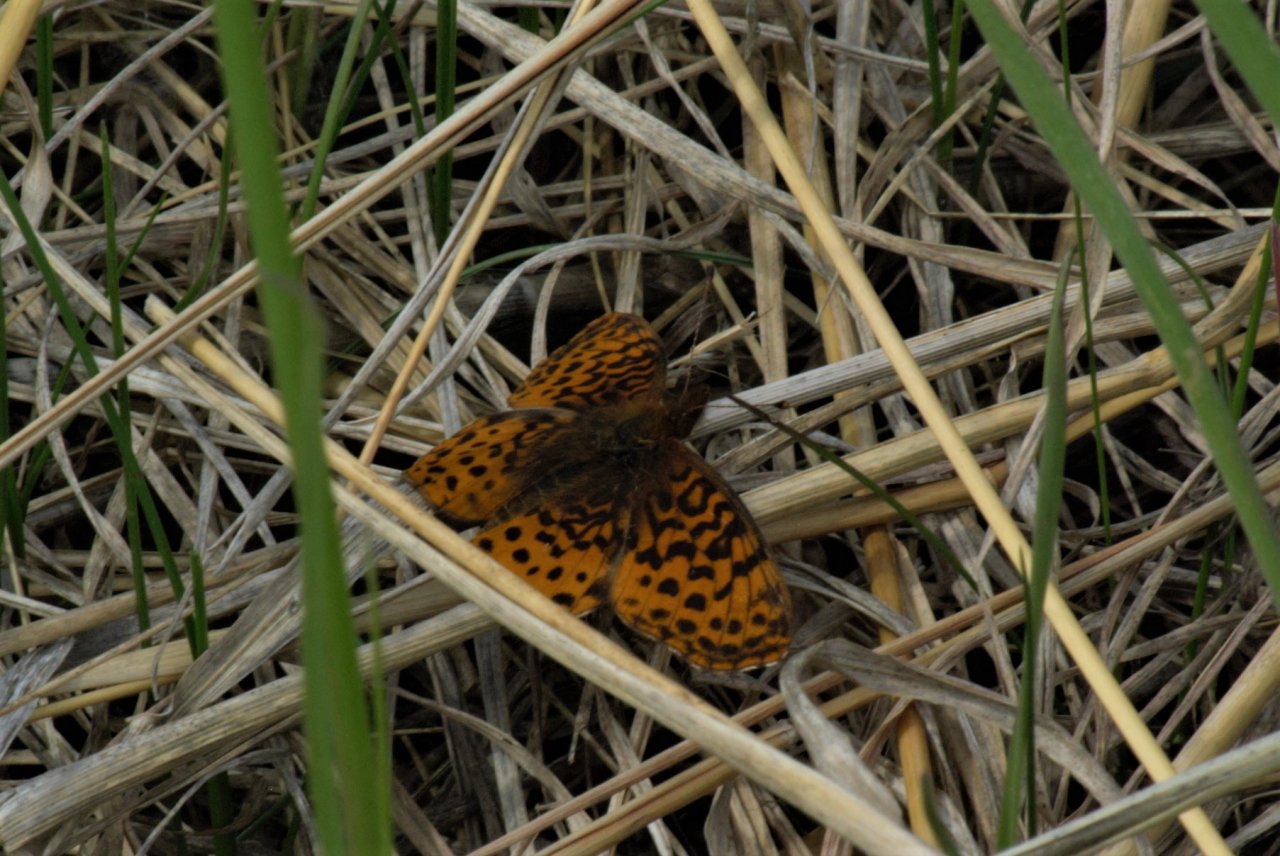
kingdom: Animalia
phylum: Arthropoda
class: Insecta
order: Lepidoptera
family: Nymphalidae
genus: Clossiana
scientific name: Clossiana toddi
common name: Meadow Fritillary
